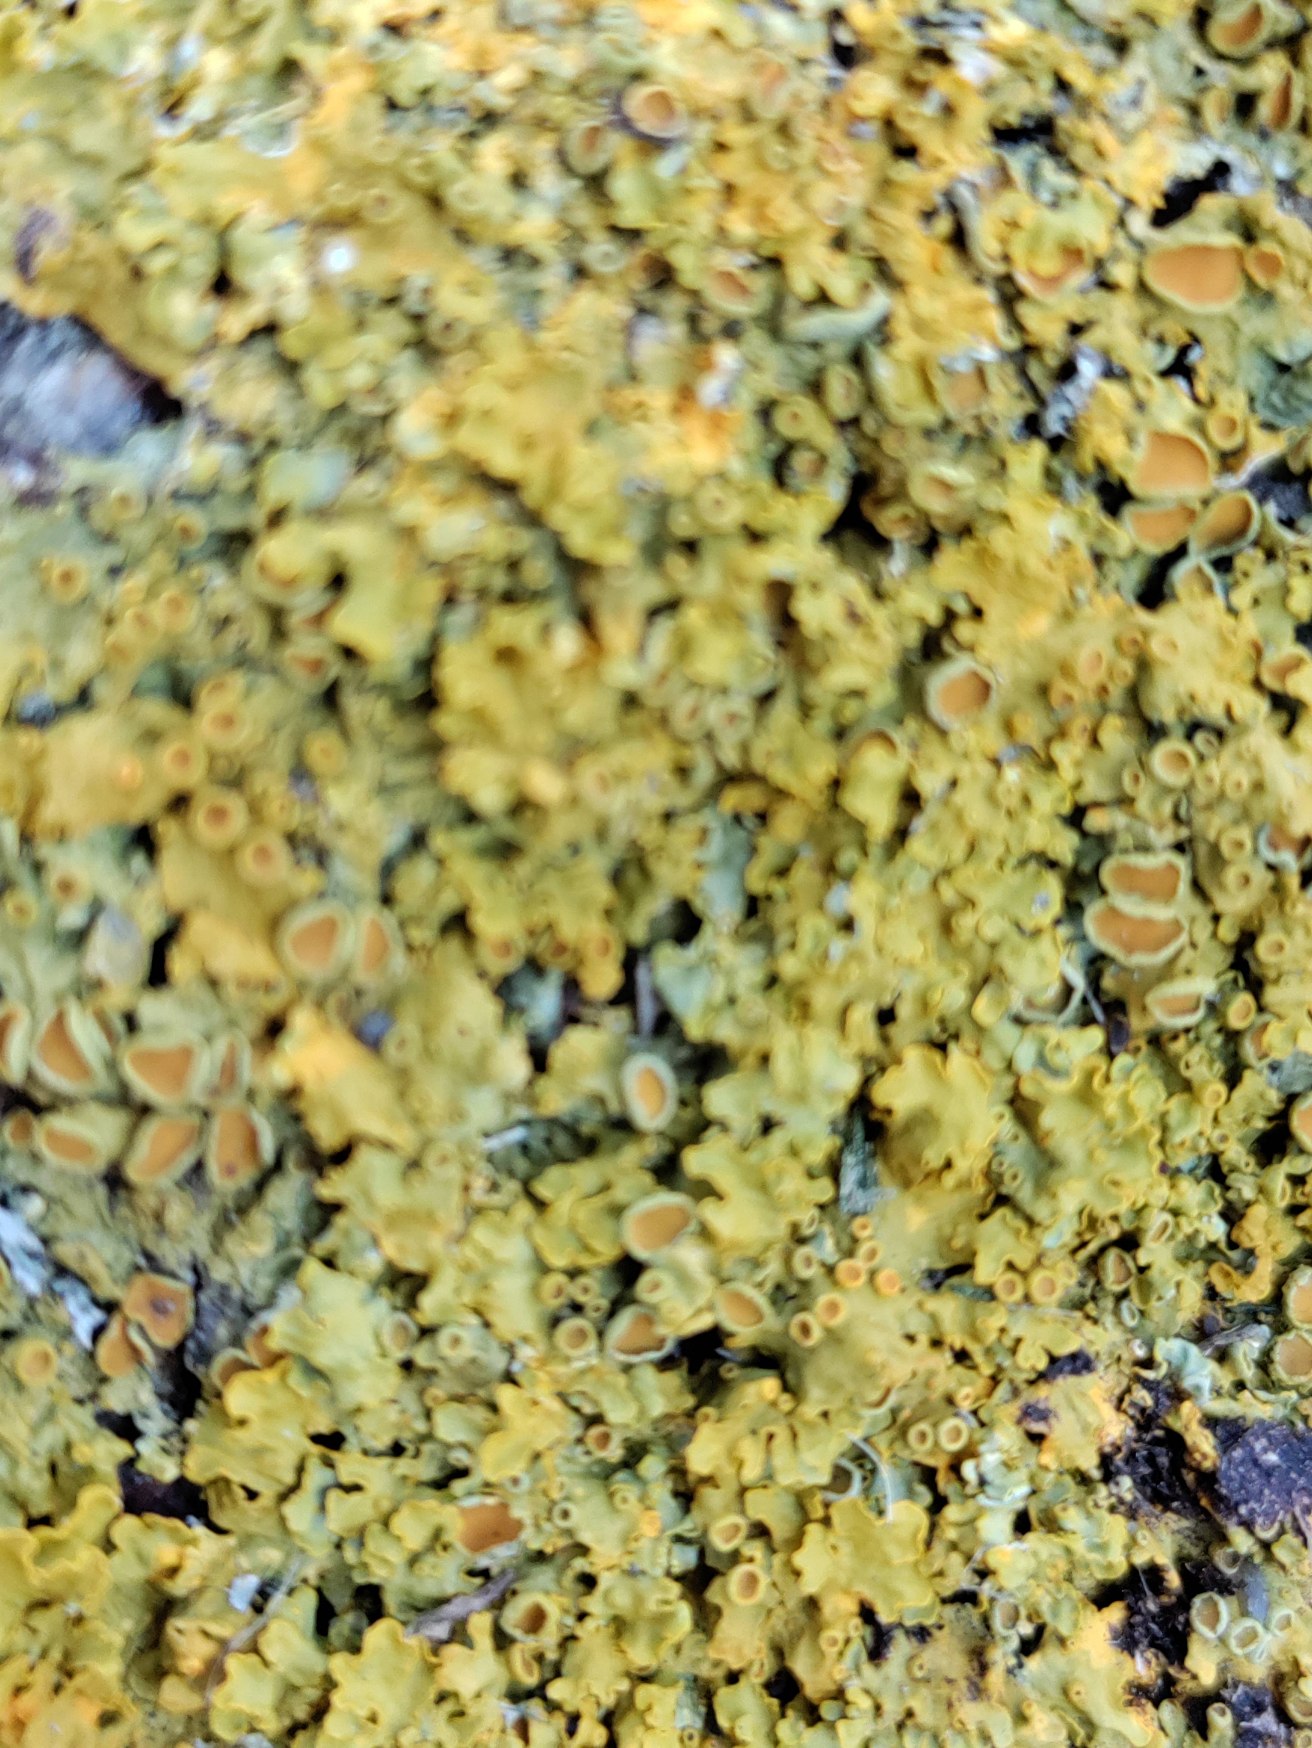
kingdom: Fungi
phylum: Ascomycota
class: Lecanoromycetes
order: Teloschistales
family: Teloschistaceae
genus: Xanthoria
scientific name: Xanthoria parietina
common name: Almindelig væggelav
